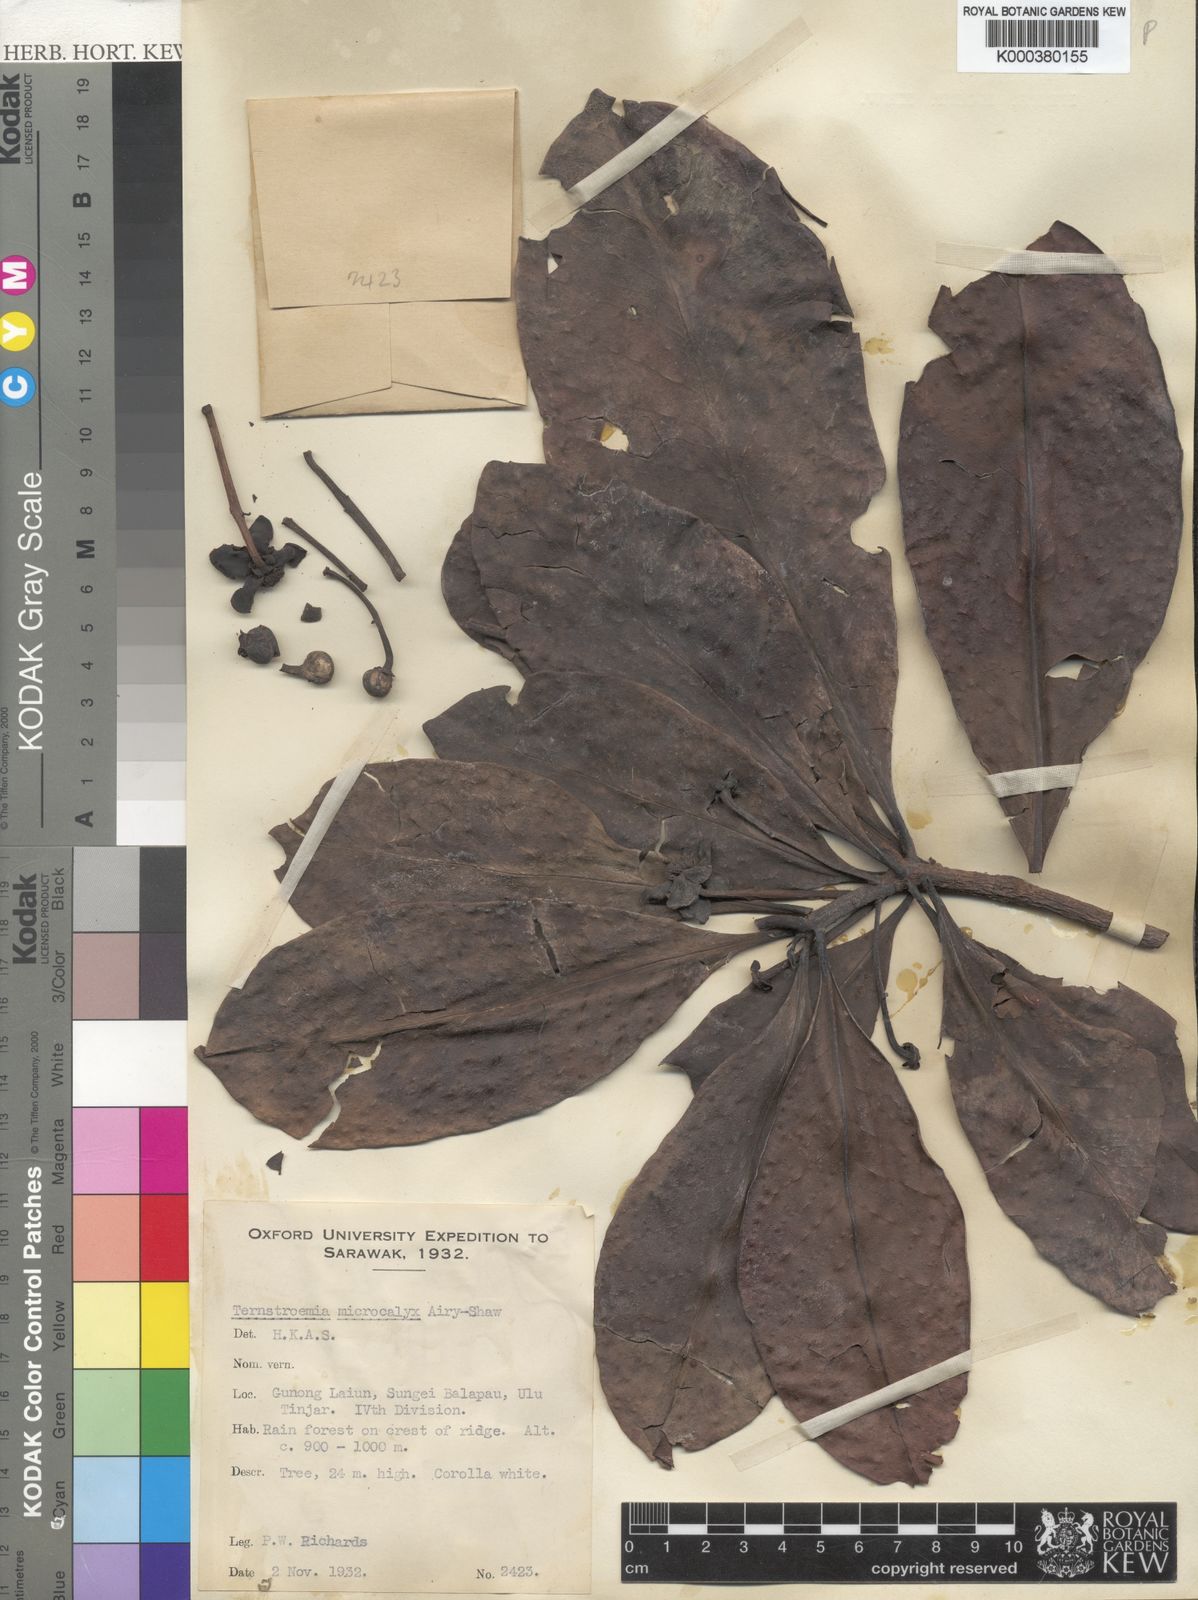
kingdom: Plantae
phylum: Tracheophyta
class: Magnoliopsida
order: Ericales
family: Pentaphylacaceae
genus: Ternstroemia
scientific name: Ternstroemia palembangensis
